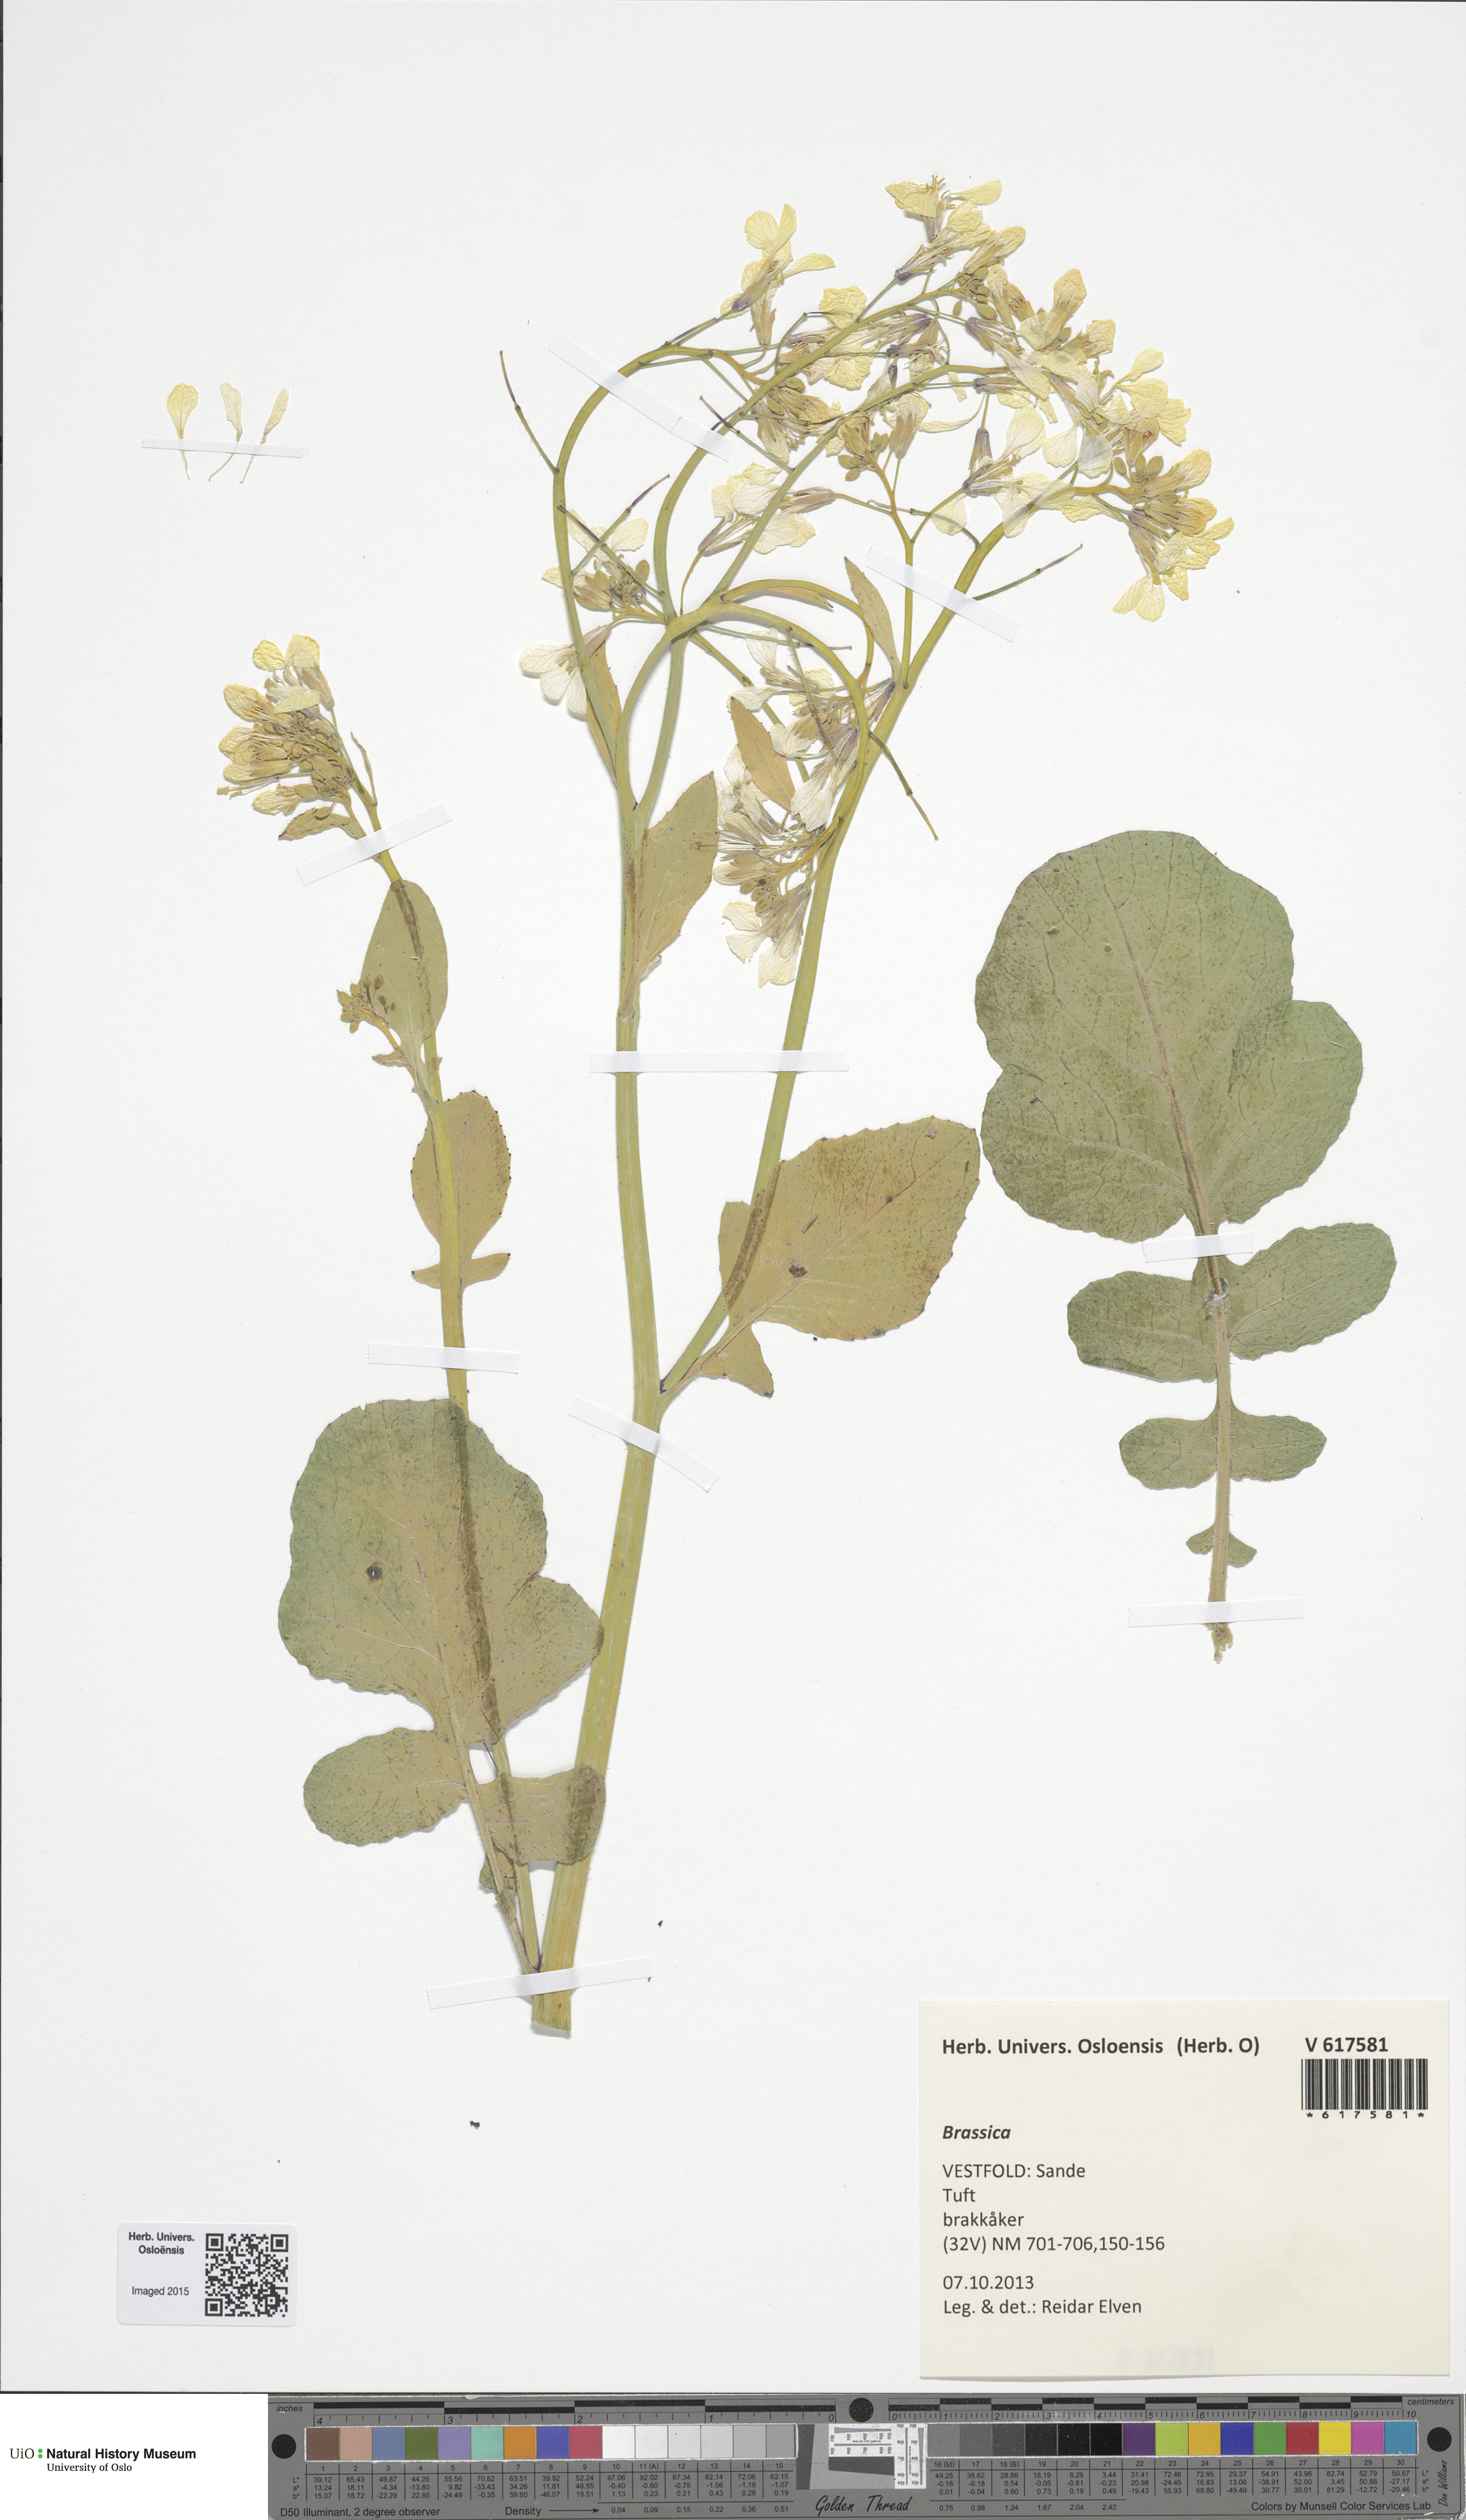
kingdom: Plantae
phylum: Tracheophyta
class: Magnoliopsida
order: Brassicales
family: Brassicaceae
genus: Brassica
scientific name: Brassica napus
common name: Rape
